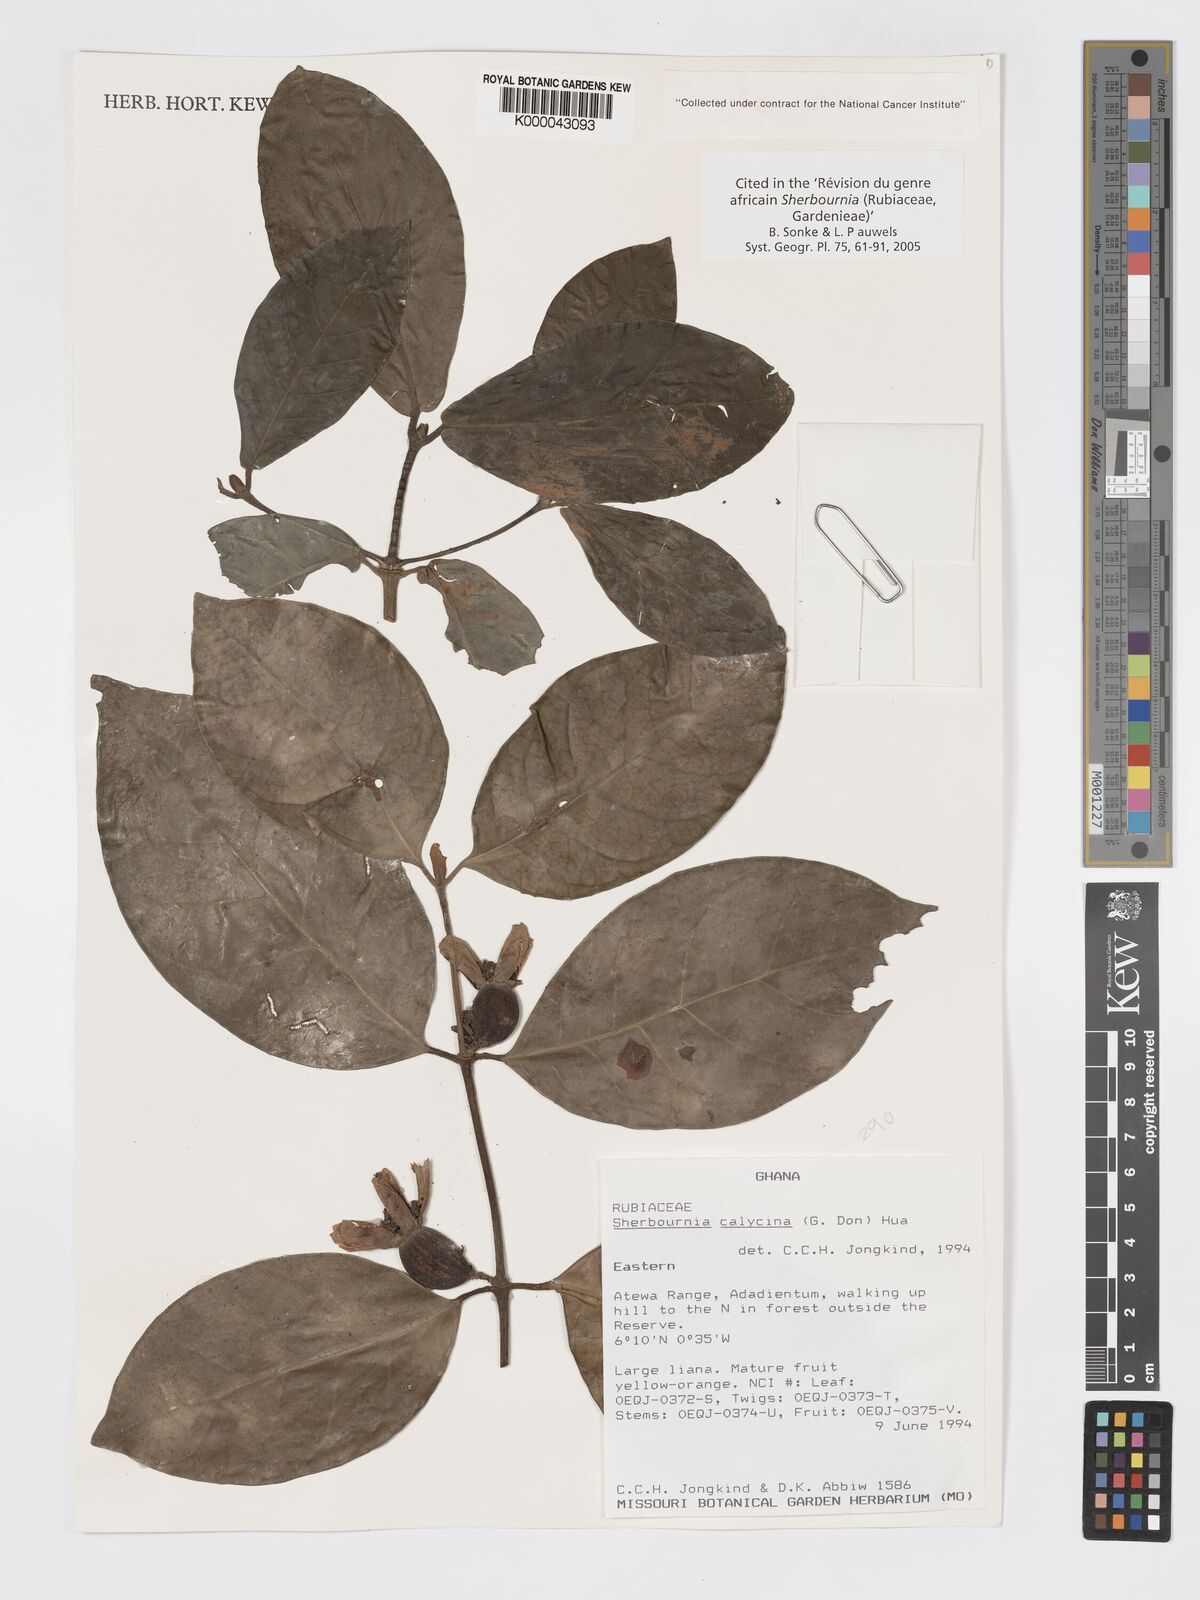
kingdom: Plantae
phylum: Tracheophyta
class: Magnoliopsida
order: Gentianales
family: Rubiaceae
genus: Sherbournia
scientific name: Sherbournia calycina
